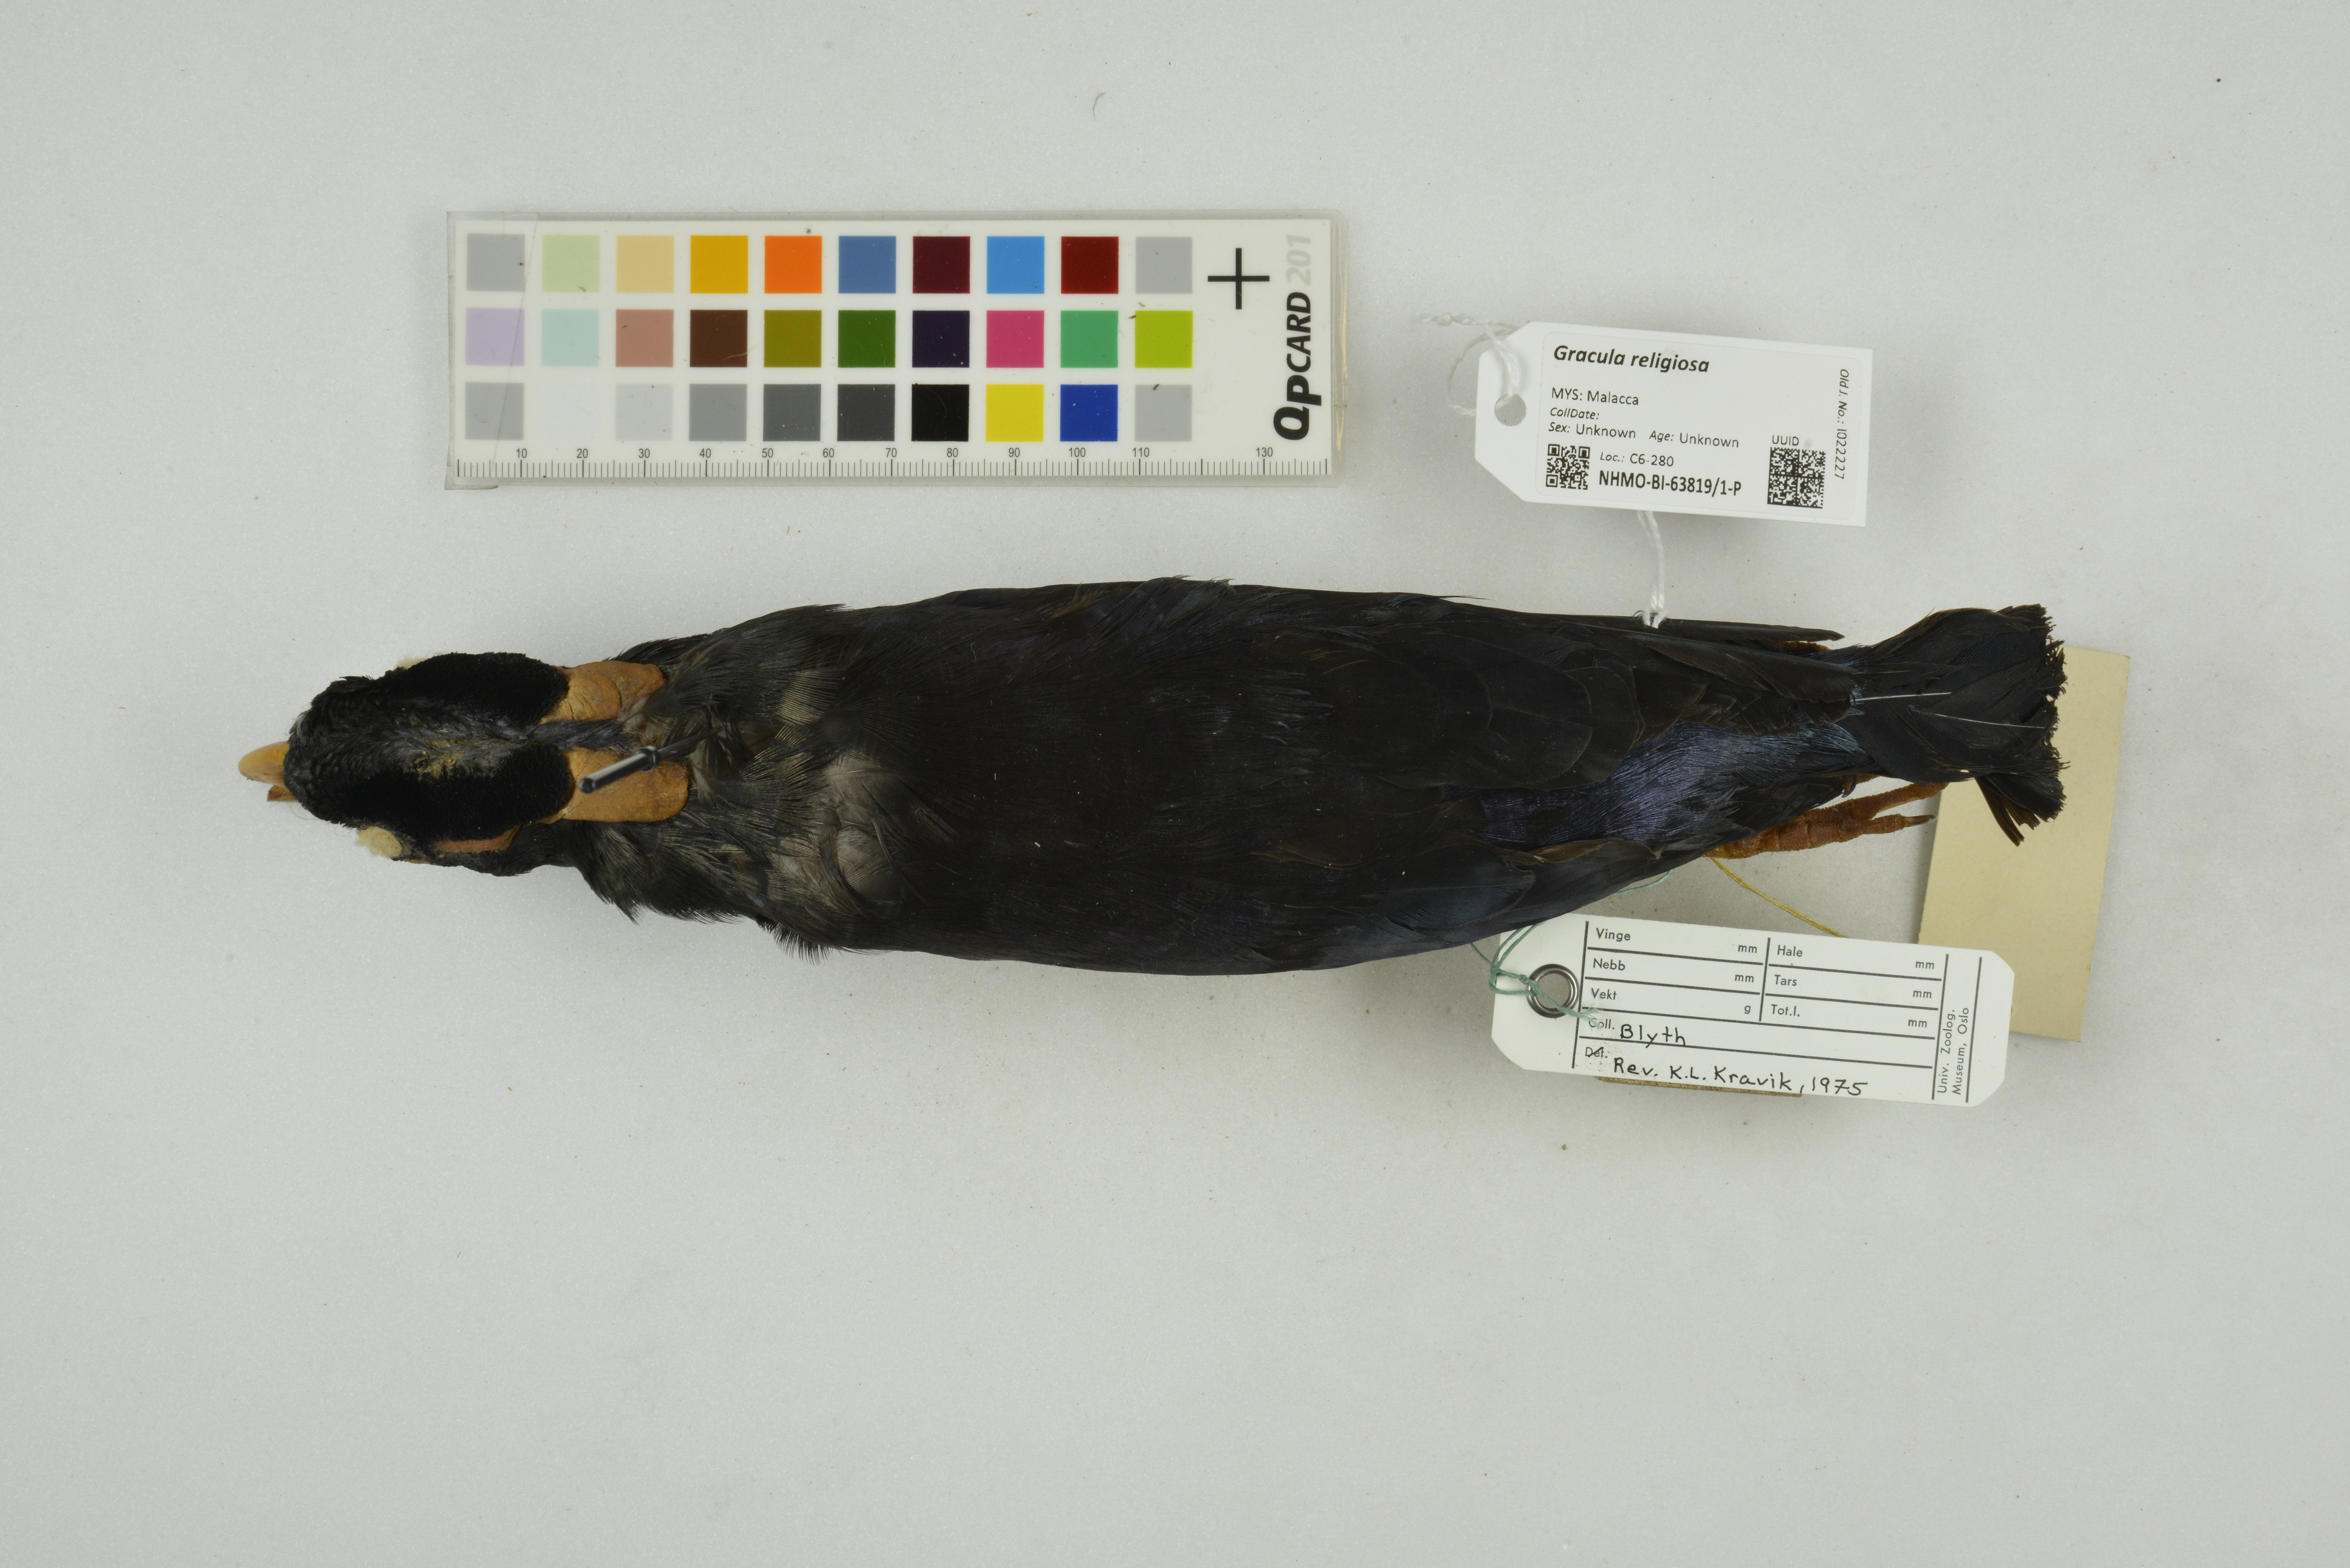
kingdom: Animalia
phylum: Chordata
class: Aves
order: Passeriformes
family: Sturnidae
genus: Gracula
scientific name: Gracula religiosa
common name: Common hill myna
